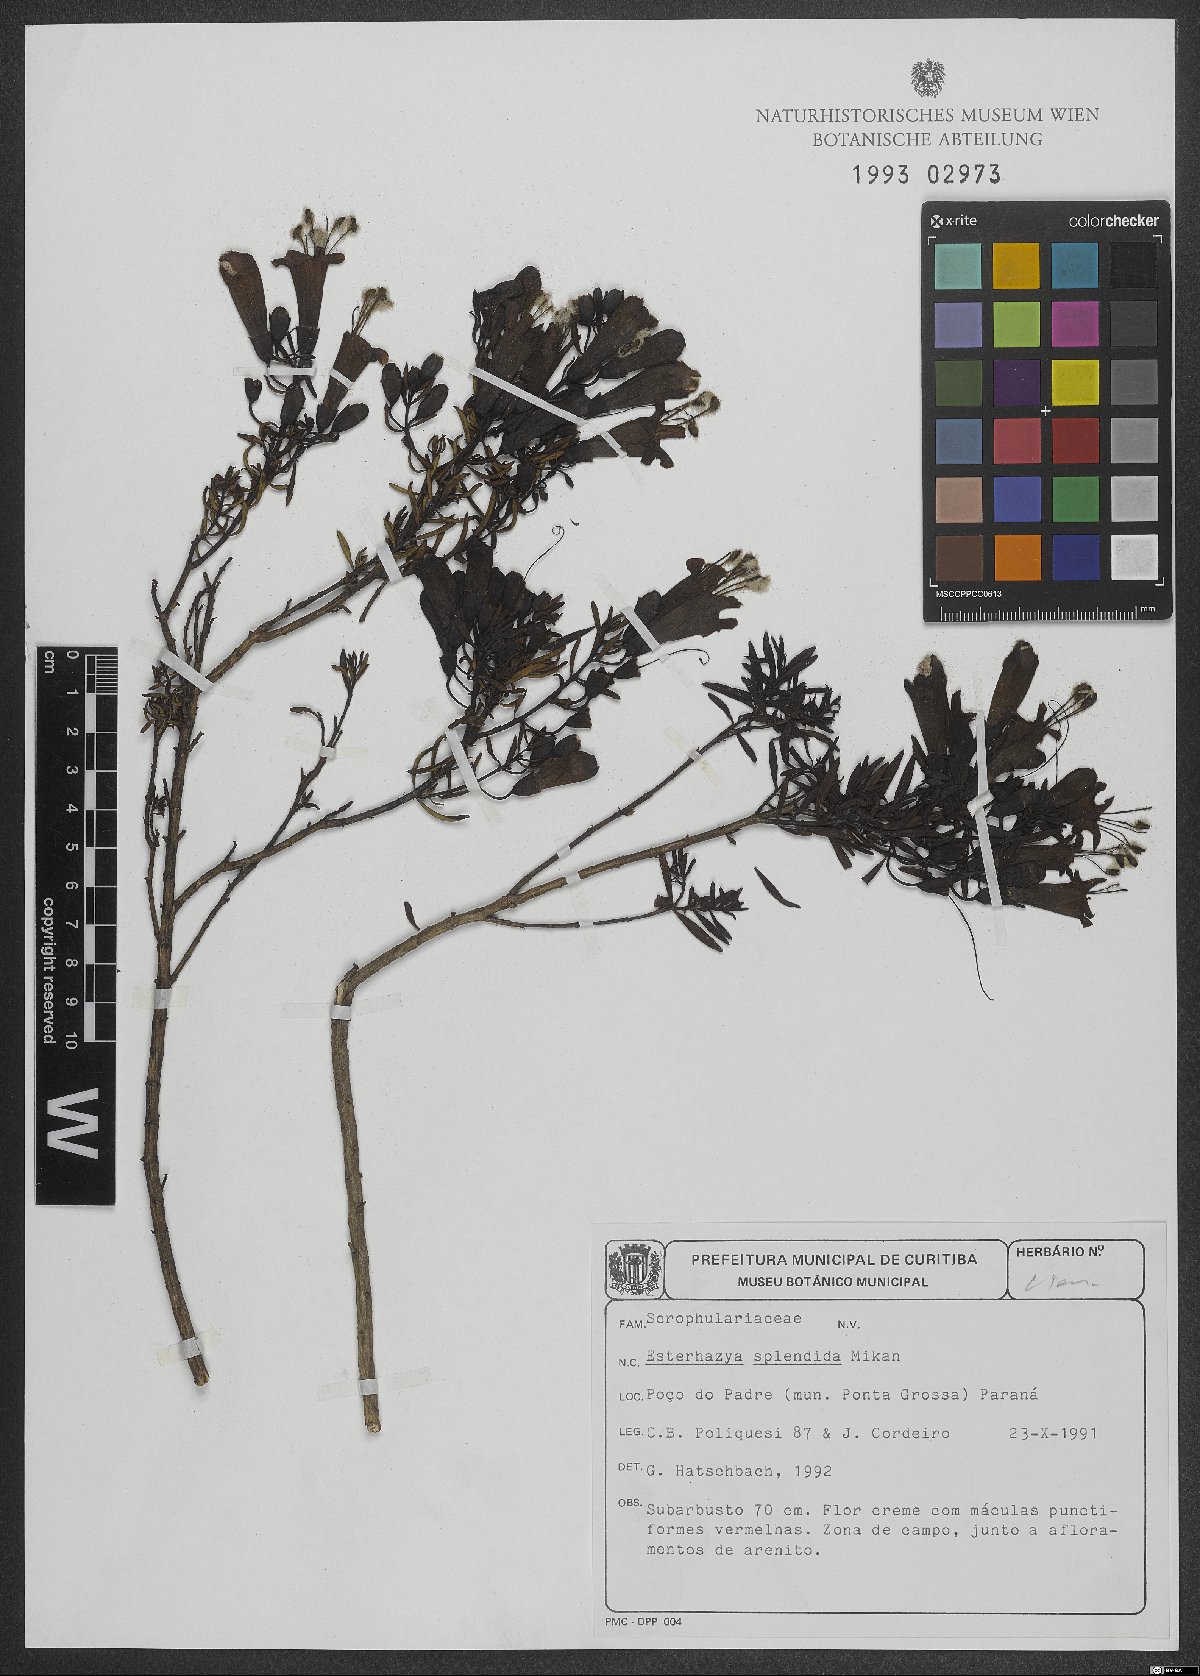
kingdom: Plantae
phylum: Tracheophyta
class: Magnoliopsida
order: Lamiales
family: Orobanchaceae
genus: Esterhazya
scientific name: Esterhazya splendida
